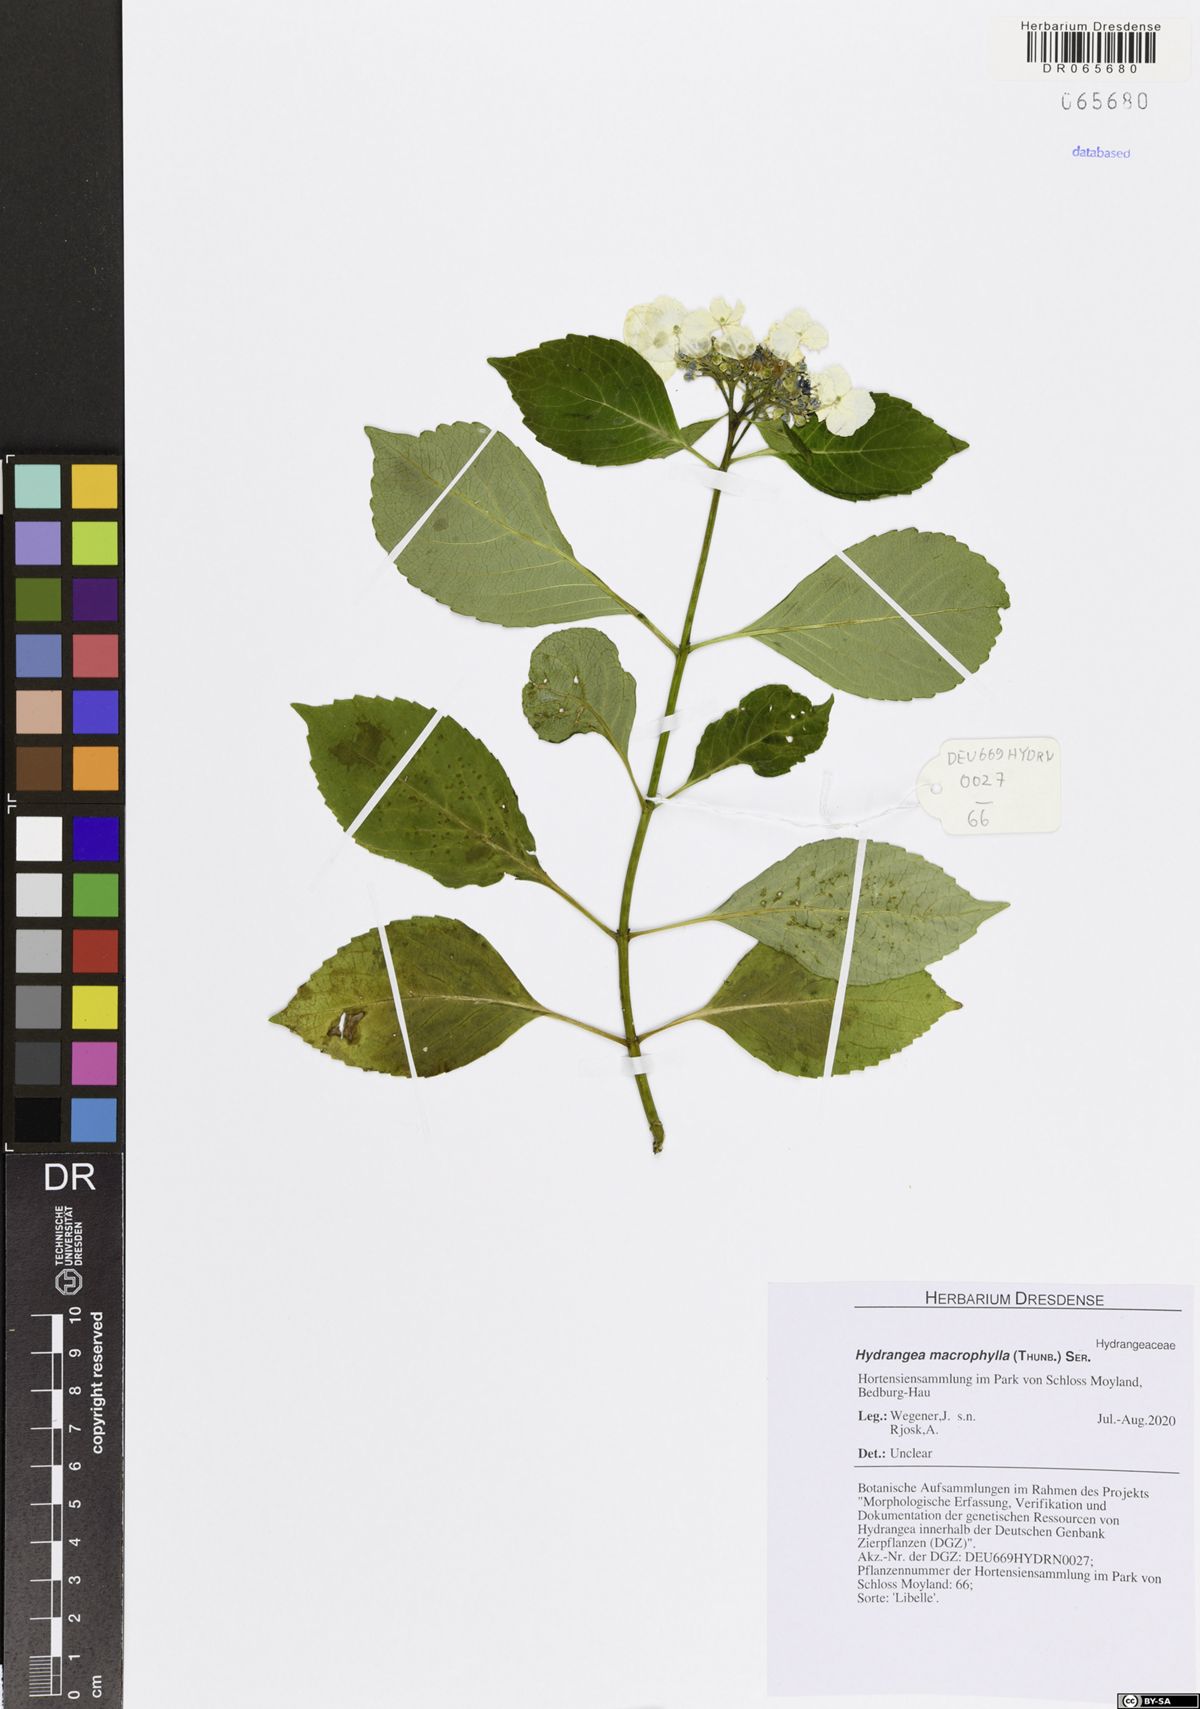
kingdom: Plantae
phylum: Tracheophyta
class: Magnoliopsida
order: Cornales
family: Hydrangeaceae
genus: Hydrangea
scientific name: Hydrangea macrophylla
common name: Hydrangea
